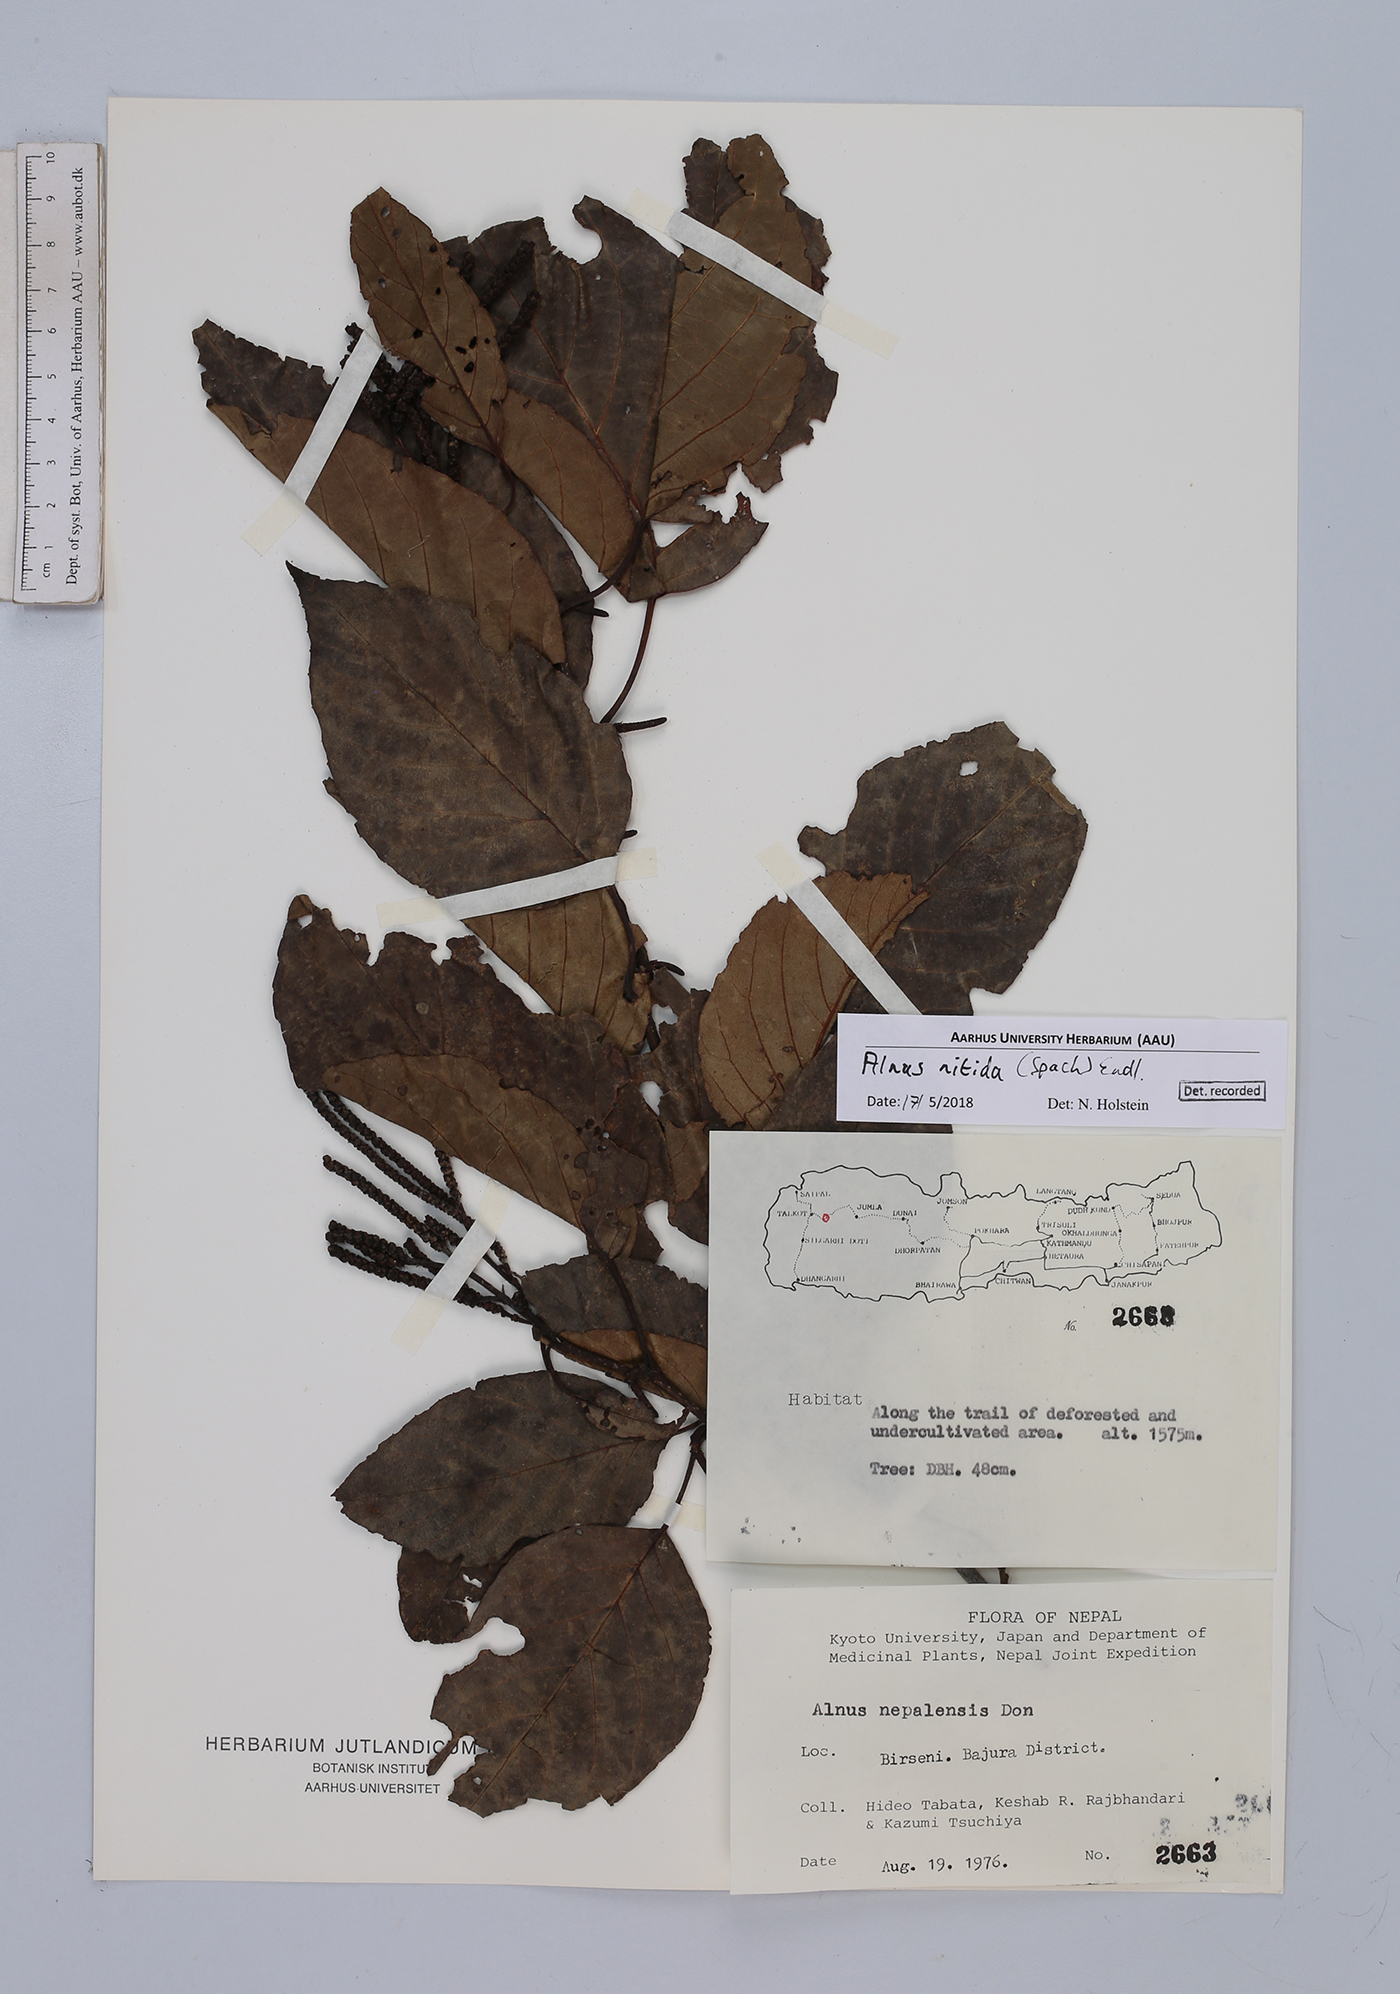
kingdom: Plantae
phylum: Tracheophyta
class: Magnoliopsida
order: Fagales
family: Betulaceae
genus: Alnus
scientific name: Alnus nitida
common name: West himalayan alder
